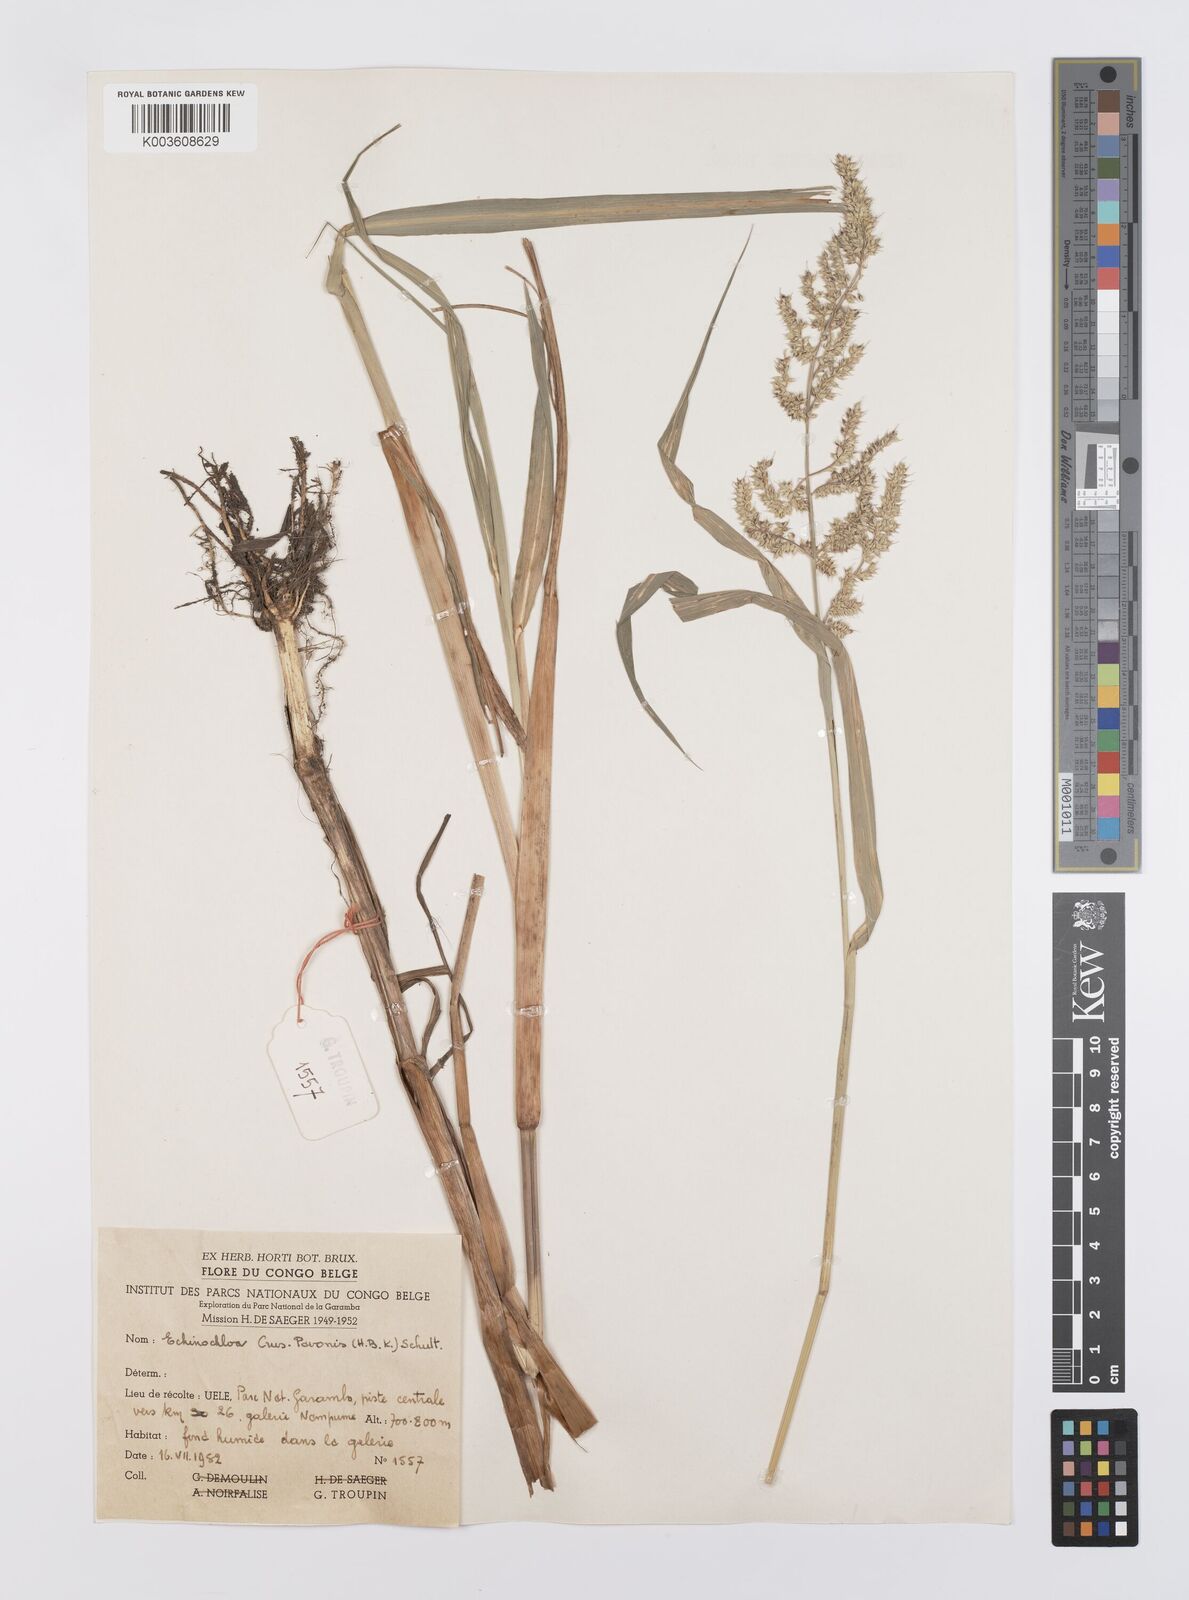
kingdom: Plantae
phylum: Tracheophyta
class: Liliopsida
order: Poales
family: Poaceae
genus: Echinochloa
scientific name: Echinochloa crus-pavonis
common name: Gulf cockspur grass
